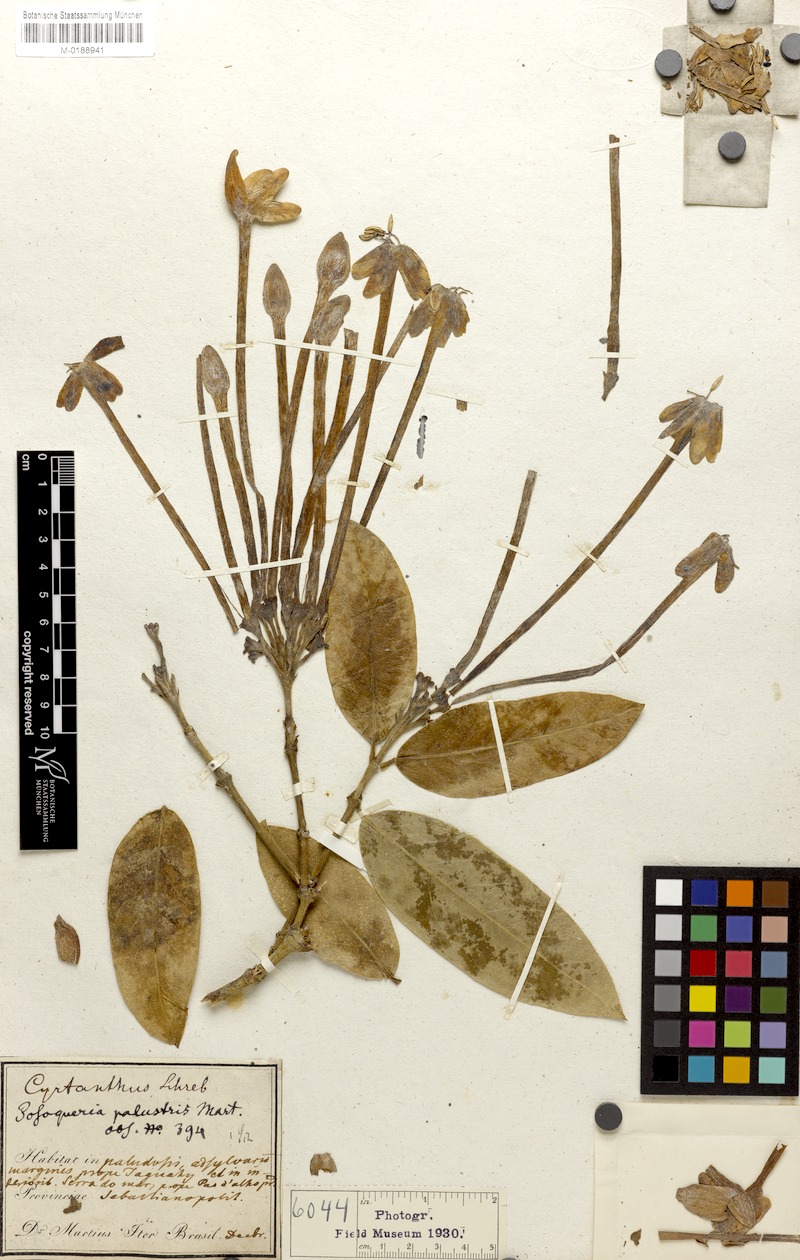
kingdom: Plantae
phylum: Tracheophyta
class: Magnoliopsida
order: Gentianales
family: Rubiaceae
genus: Posoqueria
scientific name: Posoqueria palustris
